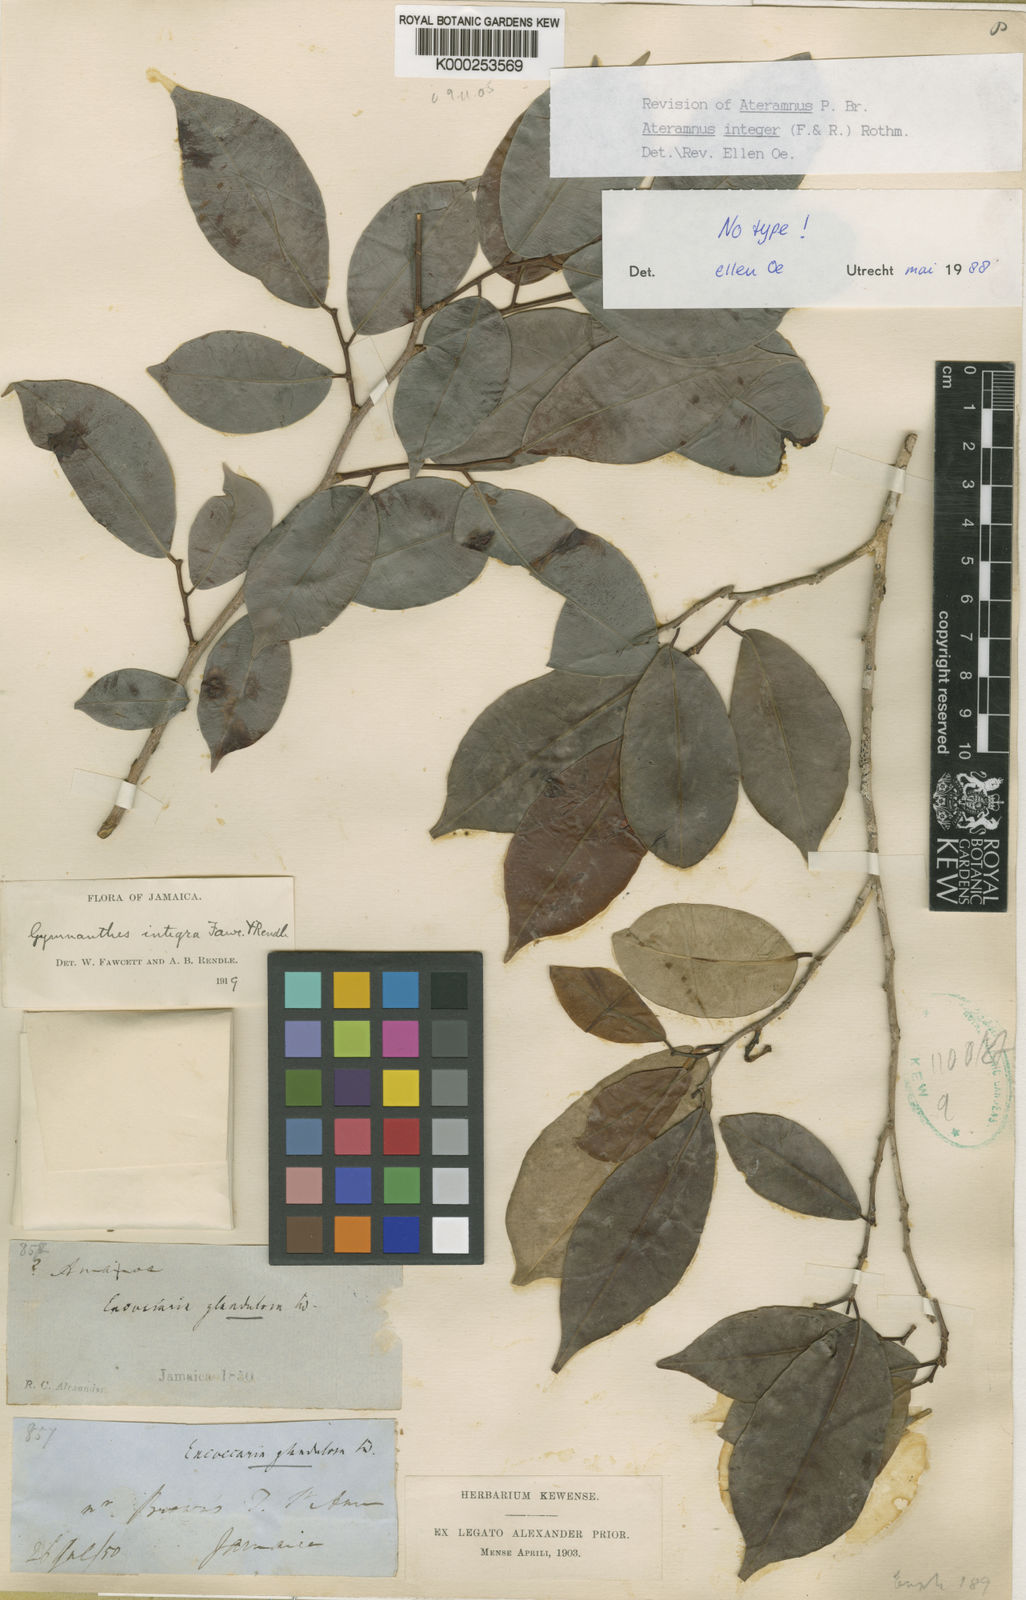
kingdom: Plantae
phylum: Tracheophyta
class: Magnoliopsida
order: Malpighiales
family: Euphorbiaceae
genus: Sebastiania
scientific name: Sebastiania integra
